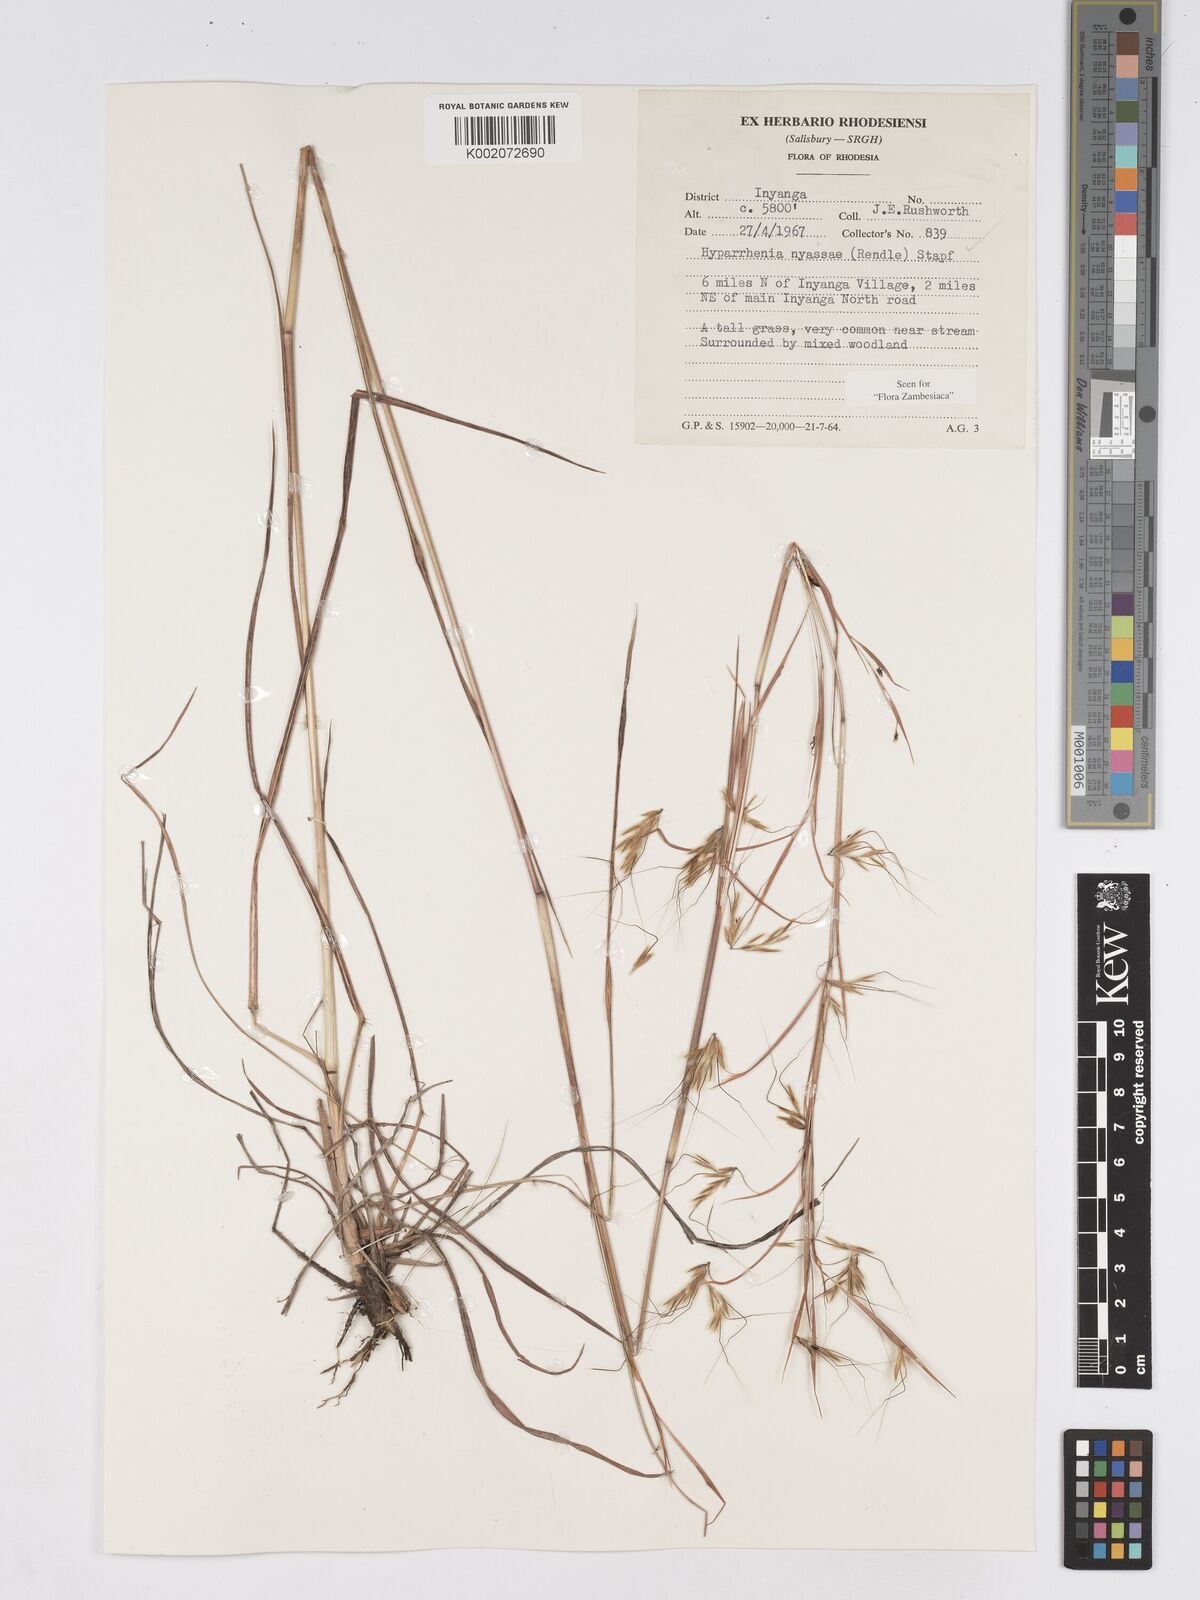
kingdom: Plantae
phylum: Tracheophyta
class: Liliopsida
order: Poales
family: Poaceae
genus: Hyparrhenia
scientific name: Hyparrhenia nyassae
